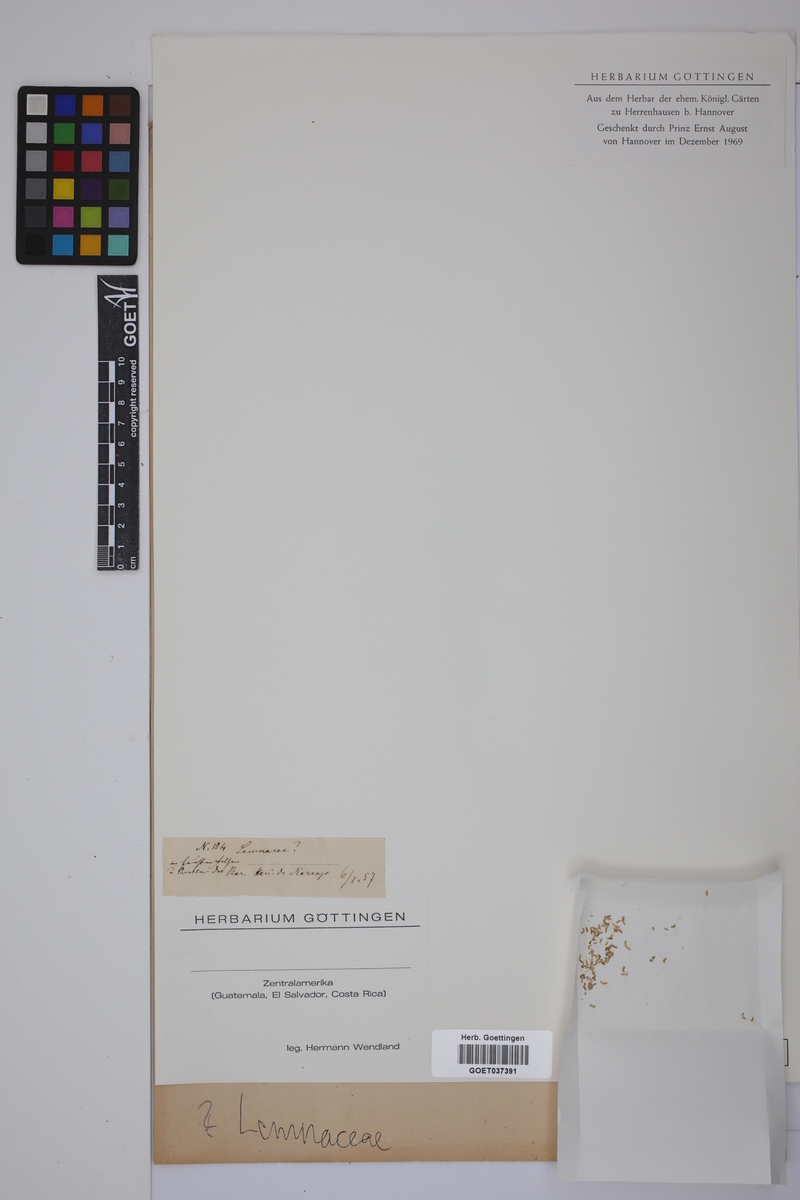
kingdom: Plantae
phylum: Tracheophyta
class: Liliopsida
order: Alismatales
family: Lemnaceae
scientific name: Lemnaceae
